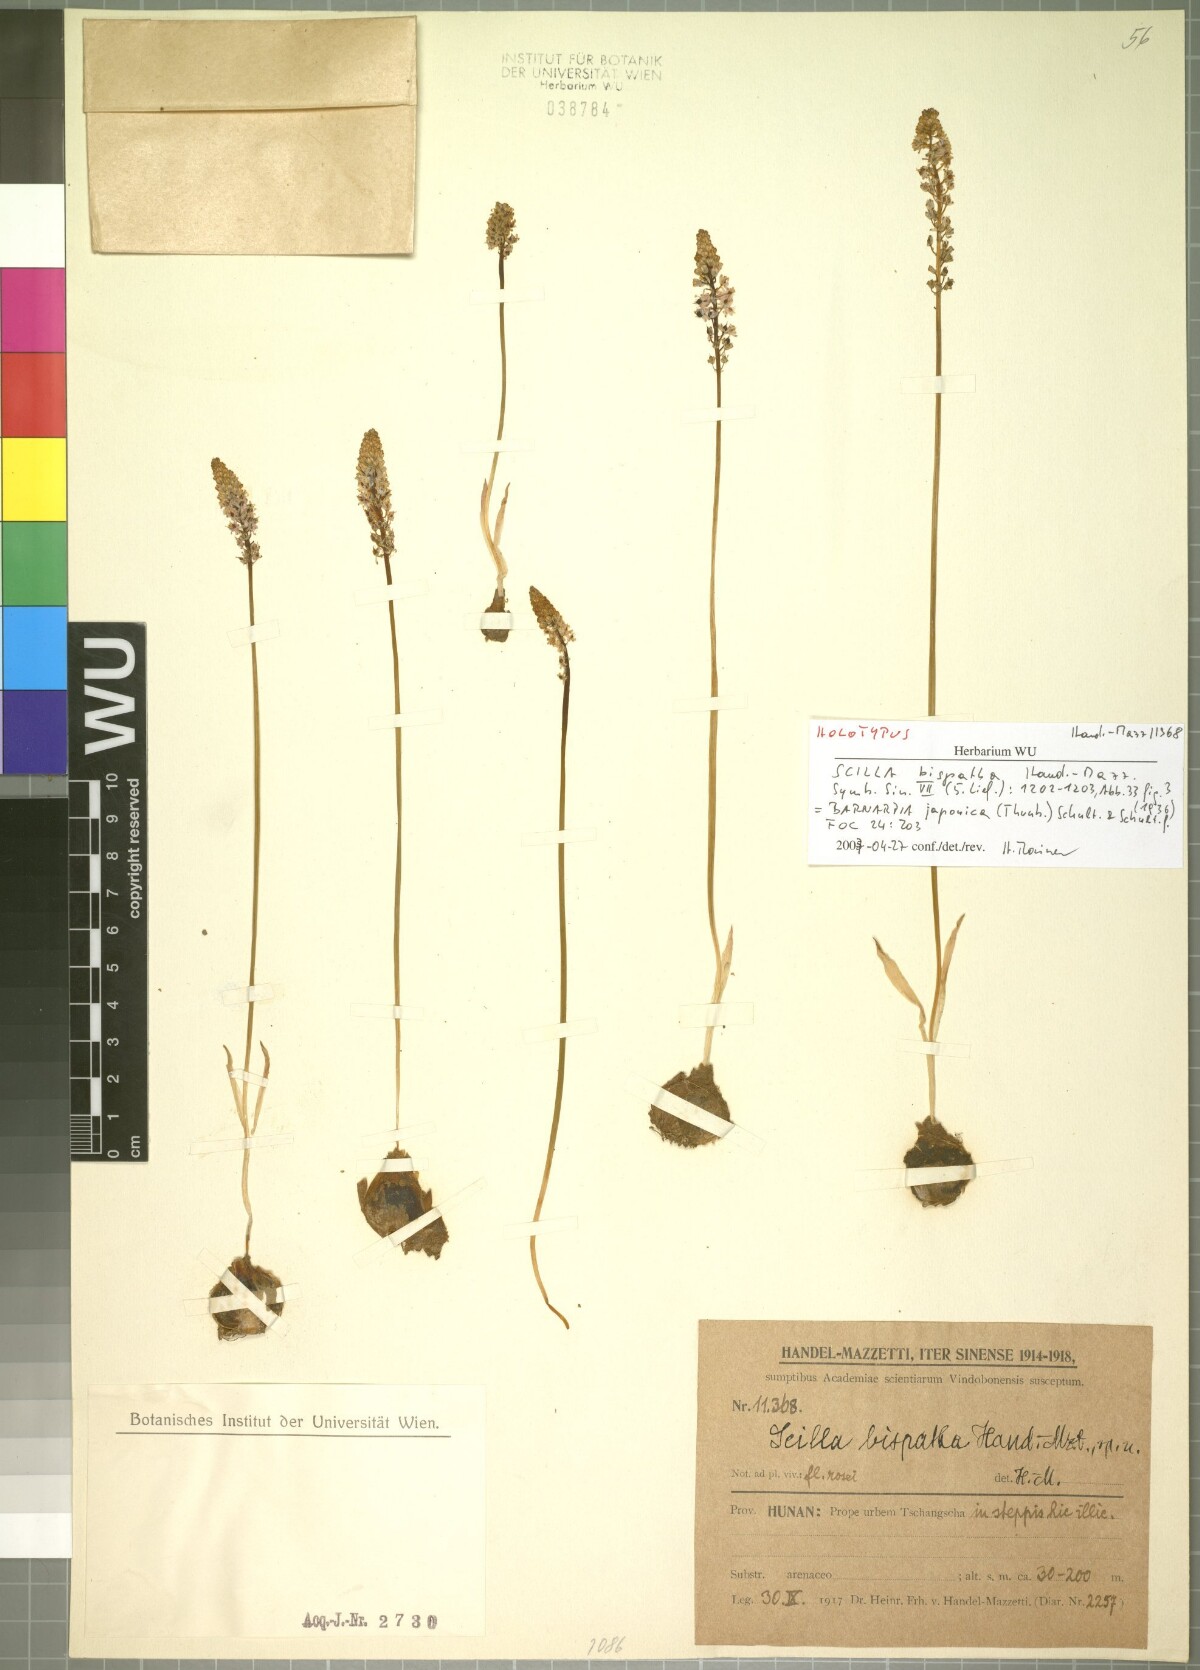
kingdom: Plantae
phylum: Tracheophyta
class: Liliopsida
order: Asparagales
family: Asparagaceae
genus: Barnardia
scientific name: Barnardia japonica
